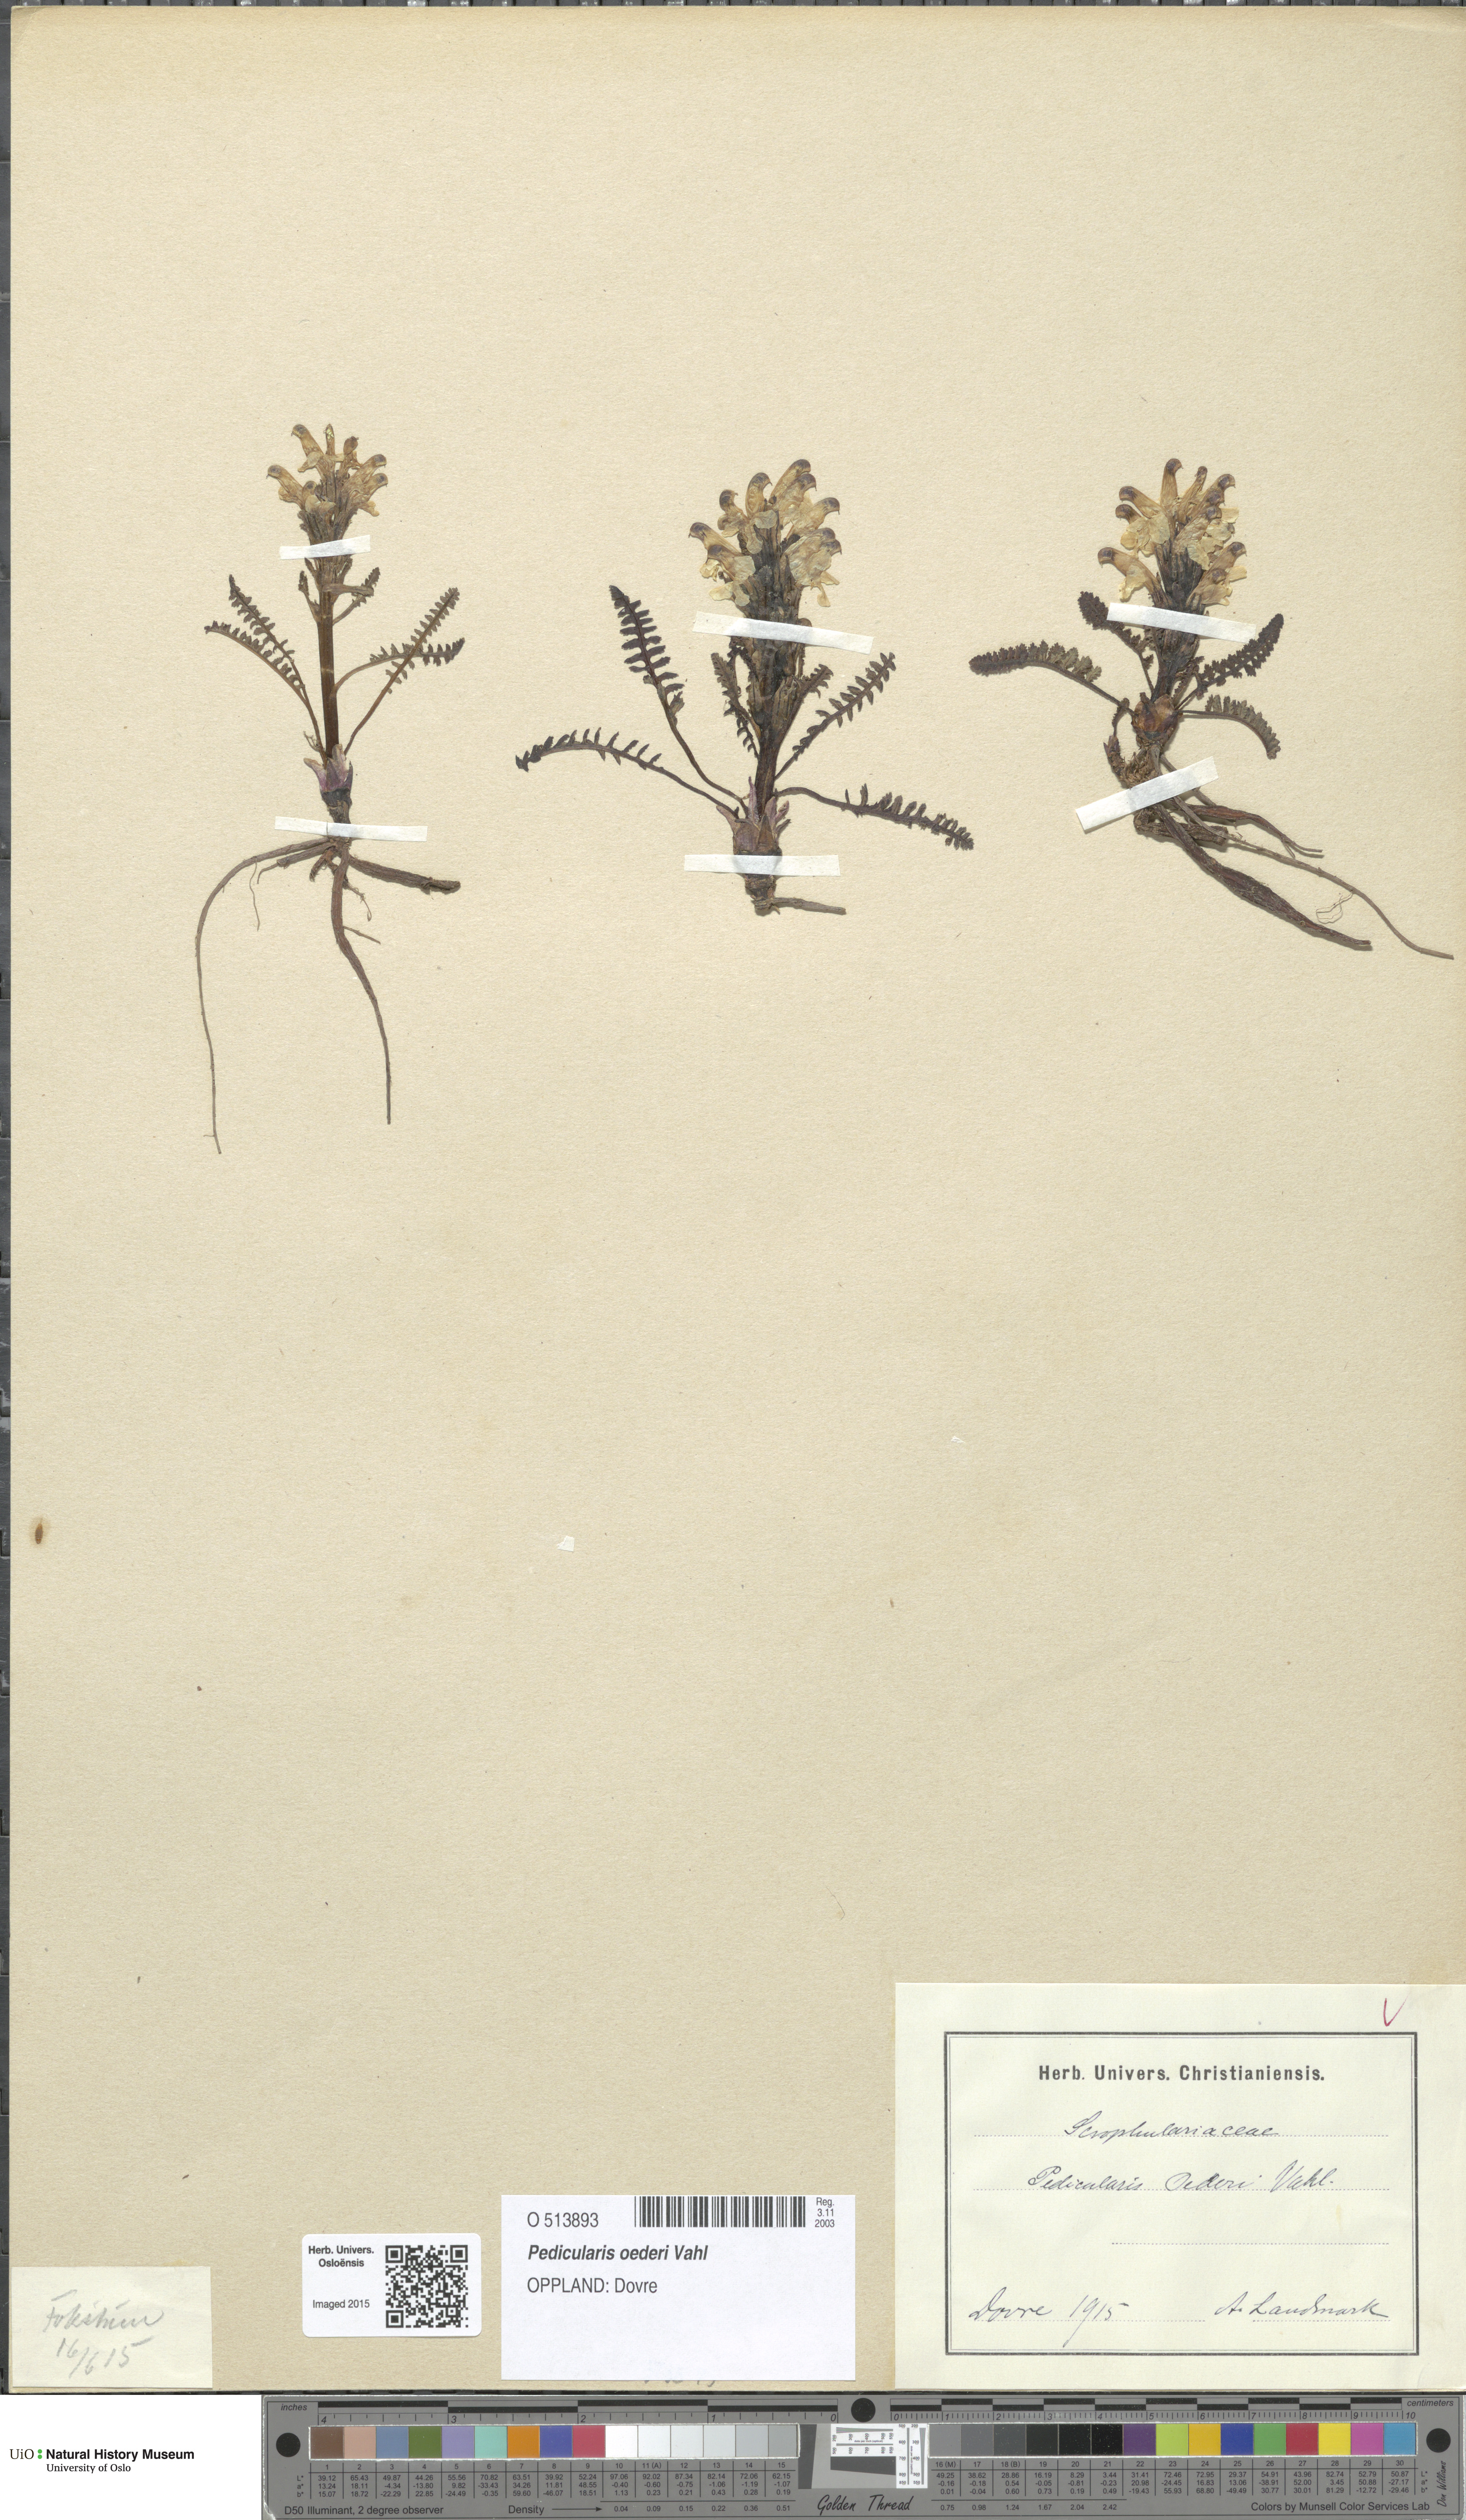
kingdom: Plantae
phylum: Tracheophyta
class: Magnoliopsida
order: Lamiales
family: Orobanchaceae
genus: Pedicularis
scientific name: Pedicularis oederi
